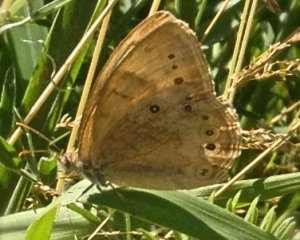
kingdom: Animalia
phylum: Arthropoda
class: Insecta
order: Lepidoptera
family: Nymphalidae
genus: Lethe
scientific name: Lethe eurydice
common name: Eyed Brown
